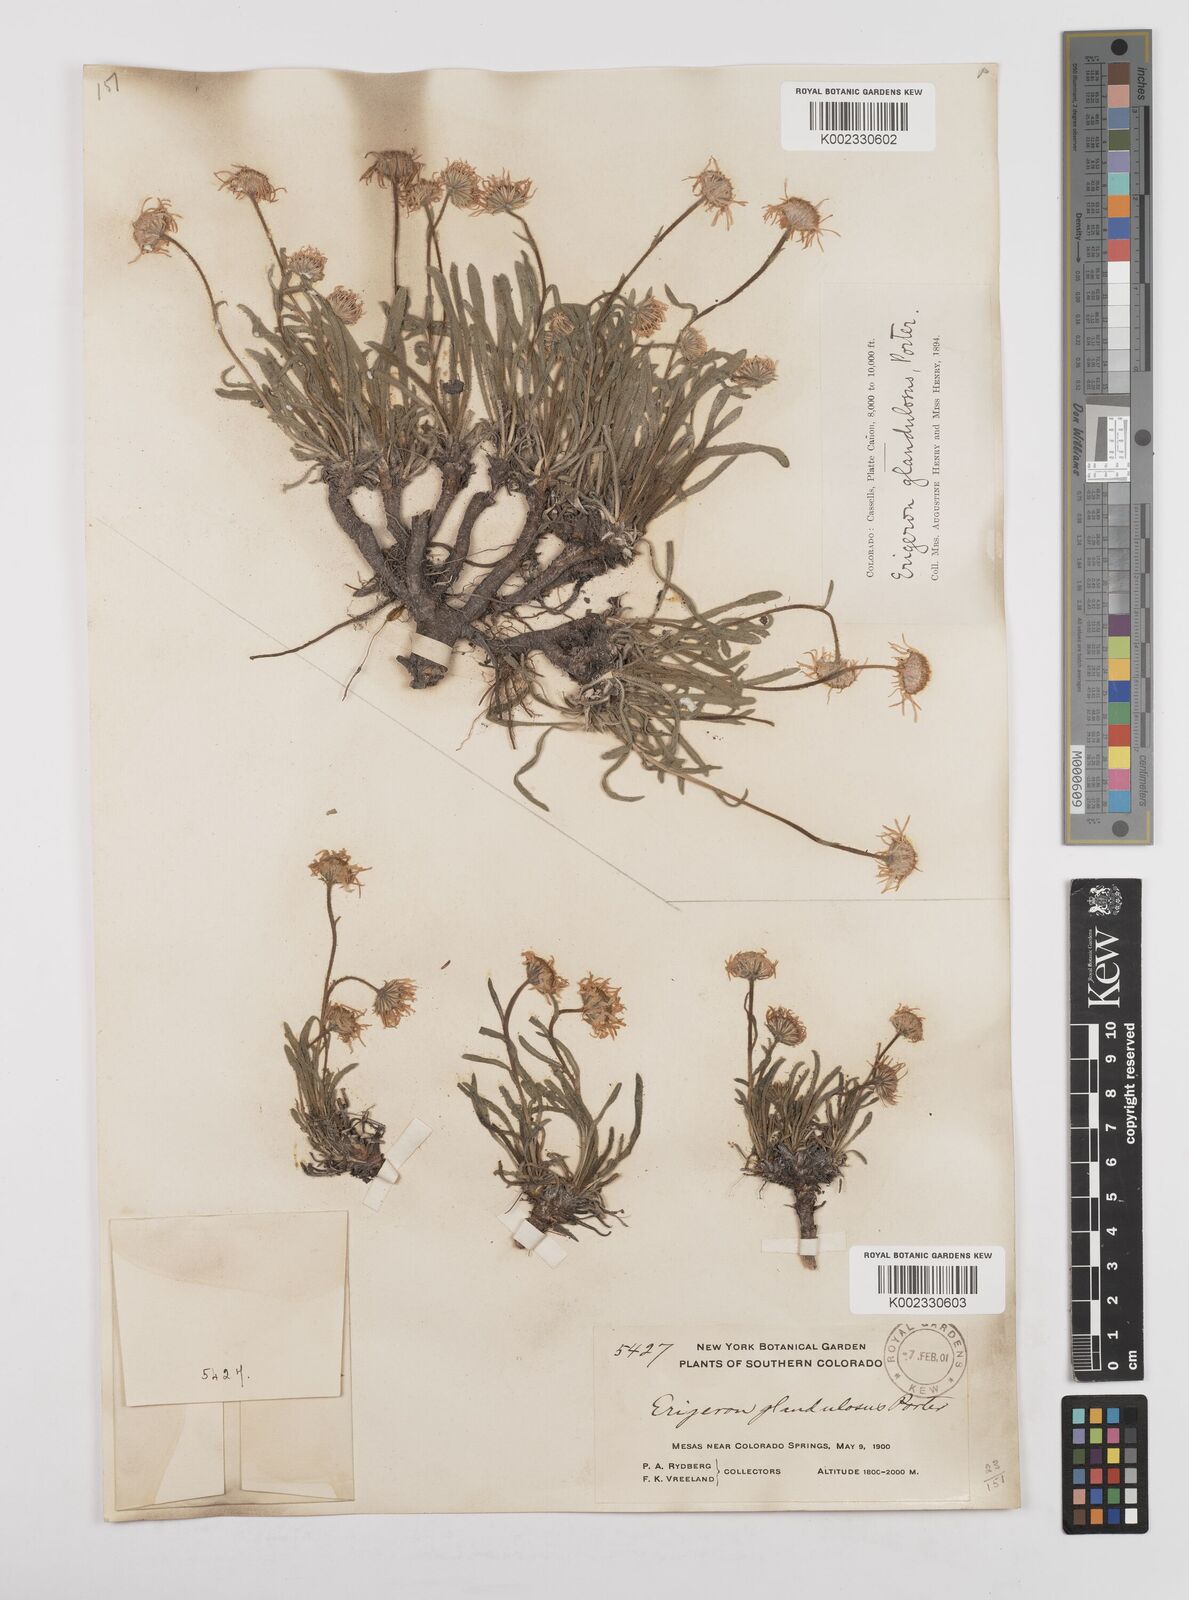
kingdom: Plantae
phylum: Tracheophyta
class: Magnoliopsida
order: Asterales
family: Asteraceae
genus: Erigeron
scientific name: Erigeron vetensis
